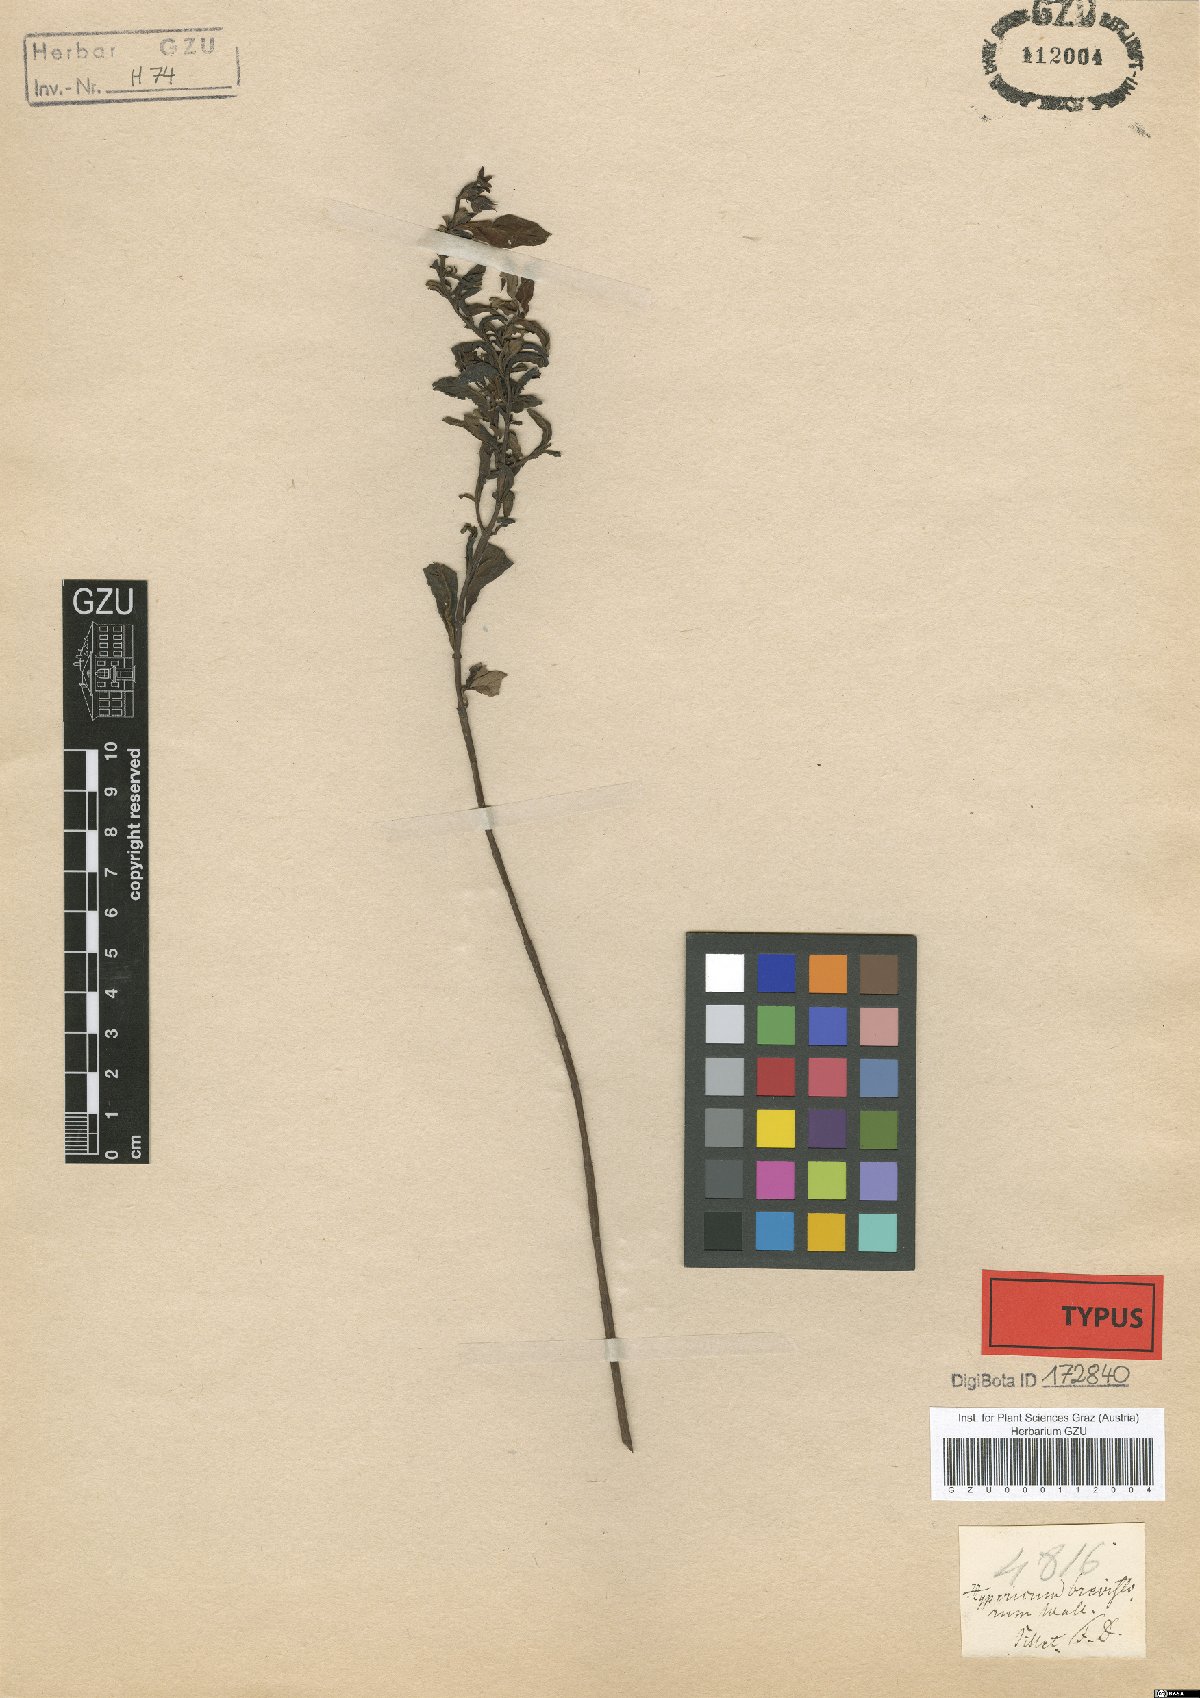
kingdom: Plantae
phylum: Tracheophyta
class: Magnoliopsida
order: Malpighiales
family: Hypericaceae
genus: Triadenum
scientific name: Triadenum breviflorum
